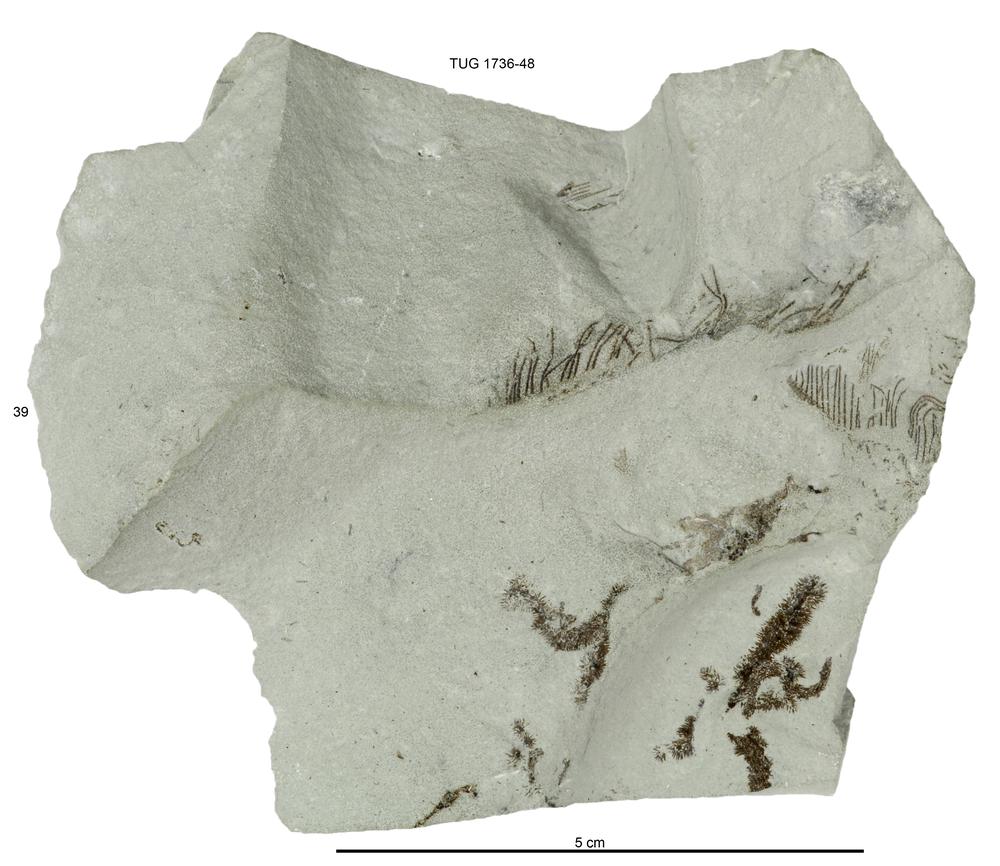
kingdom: Animalia
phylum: Echinodermata
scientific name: Echinodermata
